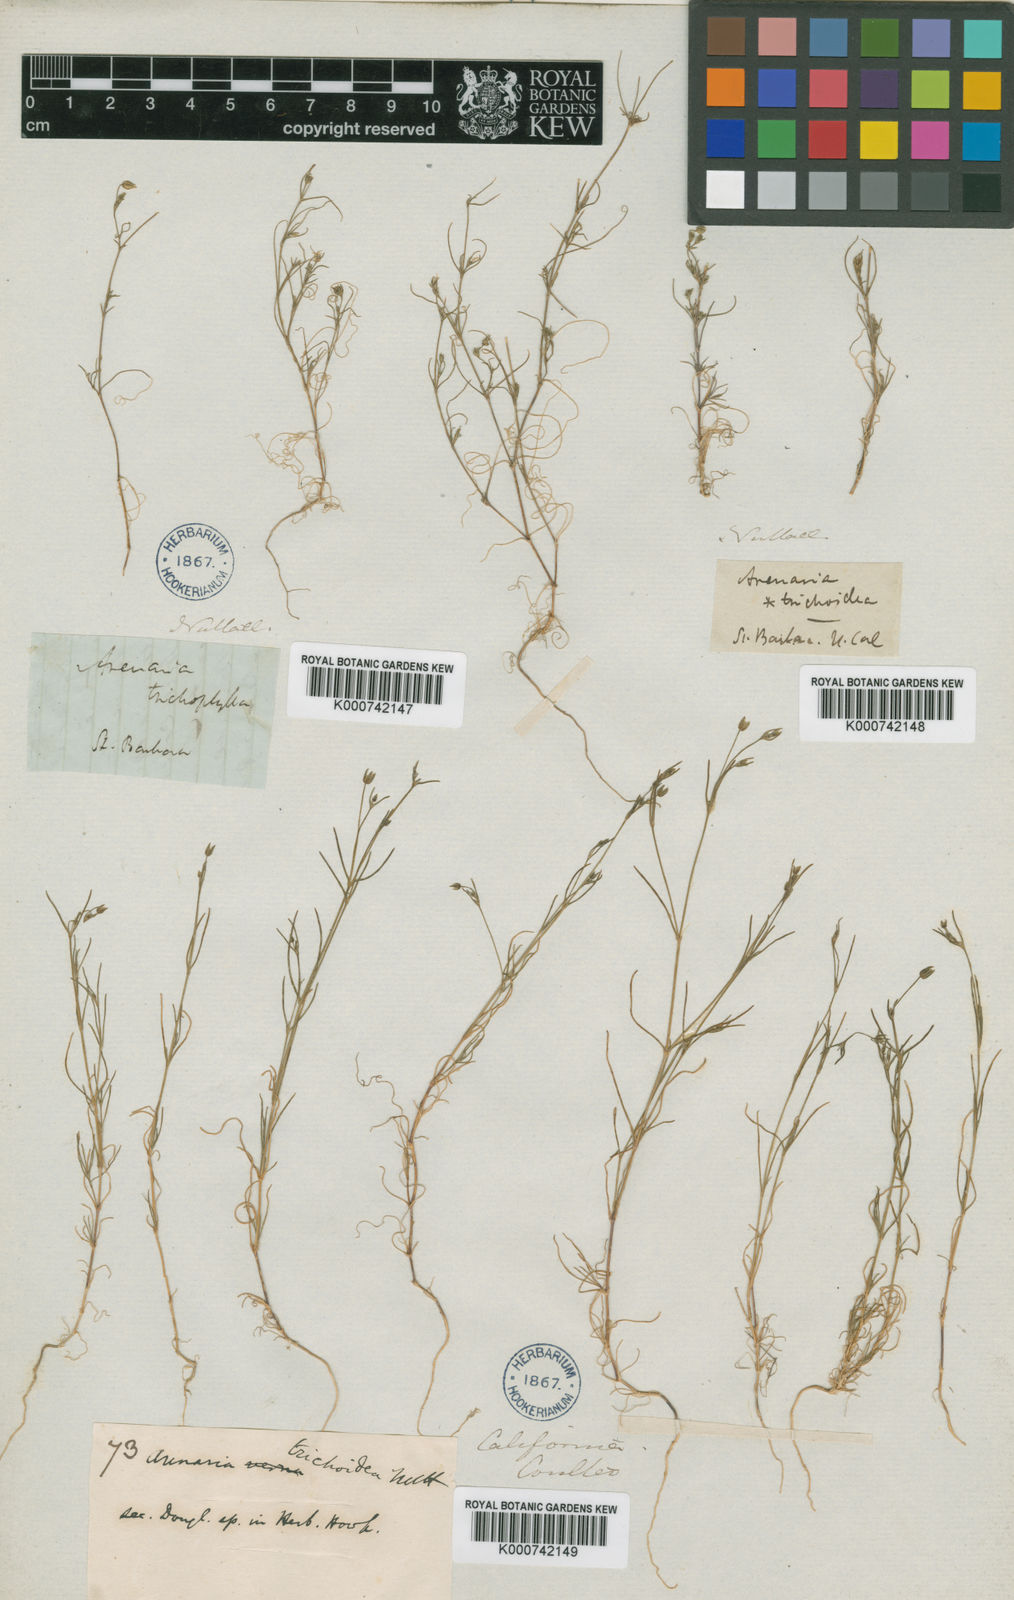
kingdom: Plantae
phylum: Tracheophyta
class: Magnoliopsida
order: Caryophyllales
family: Caryophyllaceae
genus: Arenaria
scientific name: Arenaria
